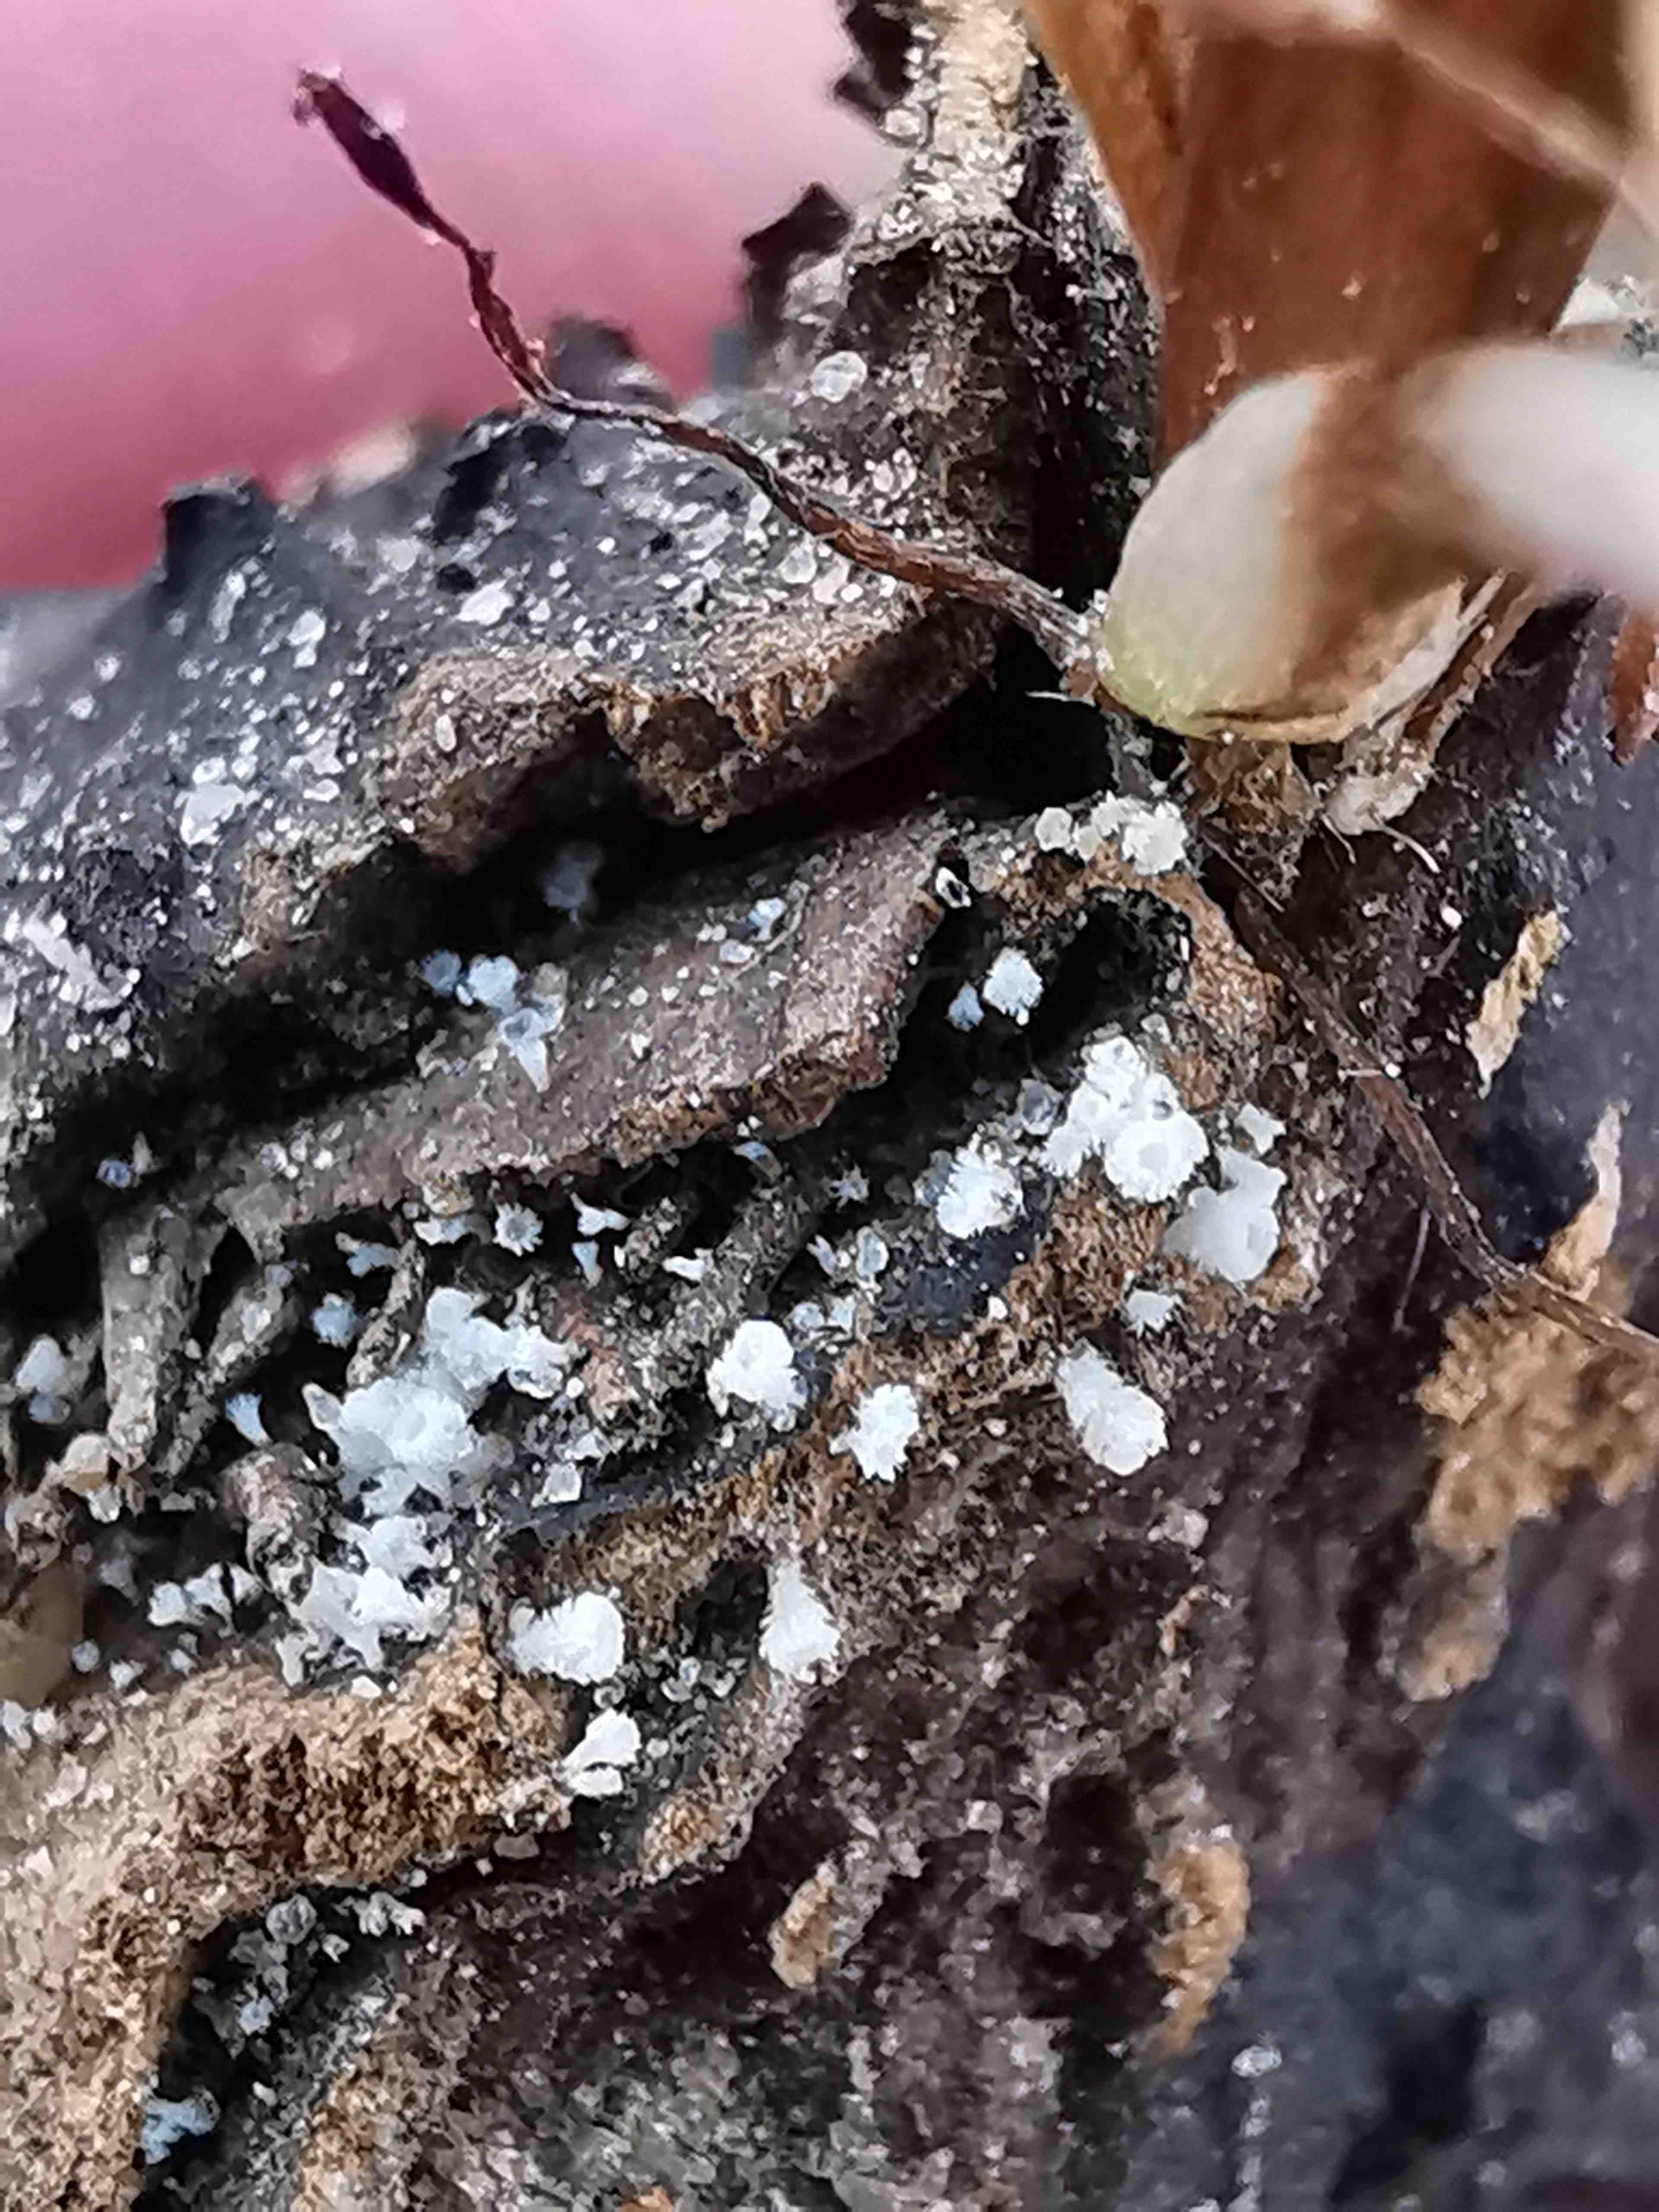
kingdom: Fungi
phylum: Ascomycota
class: Leotiomycetes
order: Helotiales
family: Lachnaceae
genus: Lachnum
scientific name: Lachnum virgineum
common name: jomfru-frynseskive
